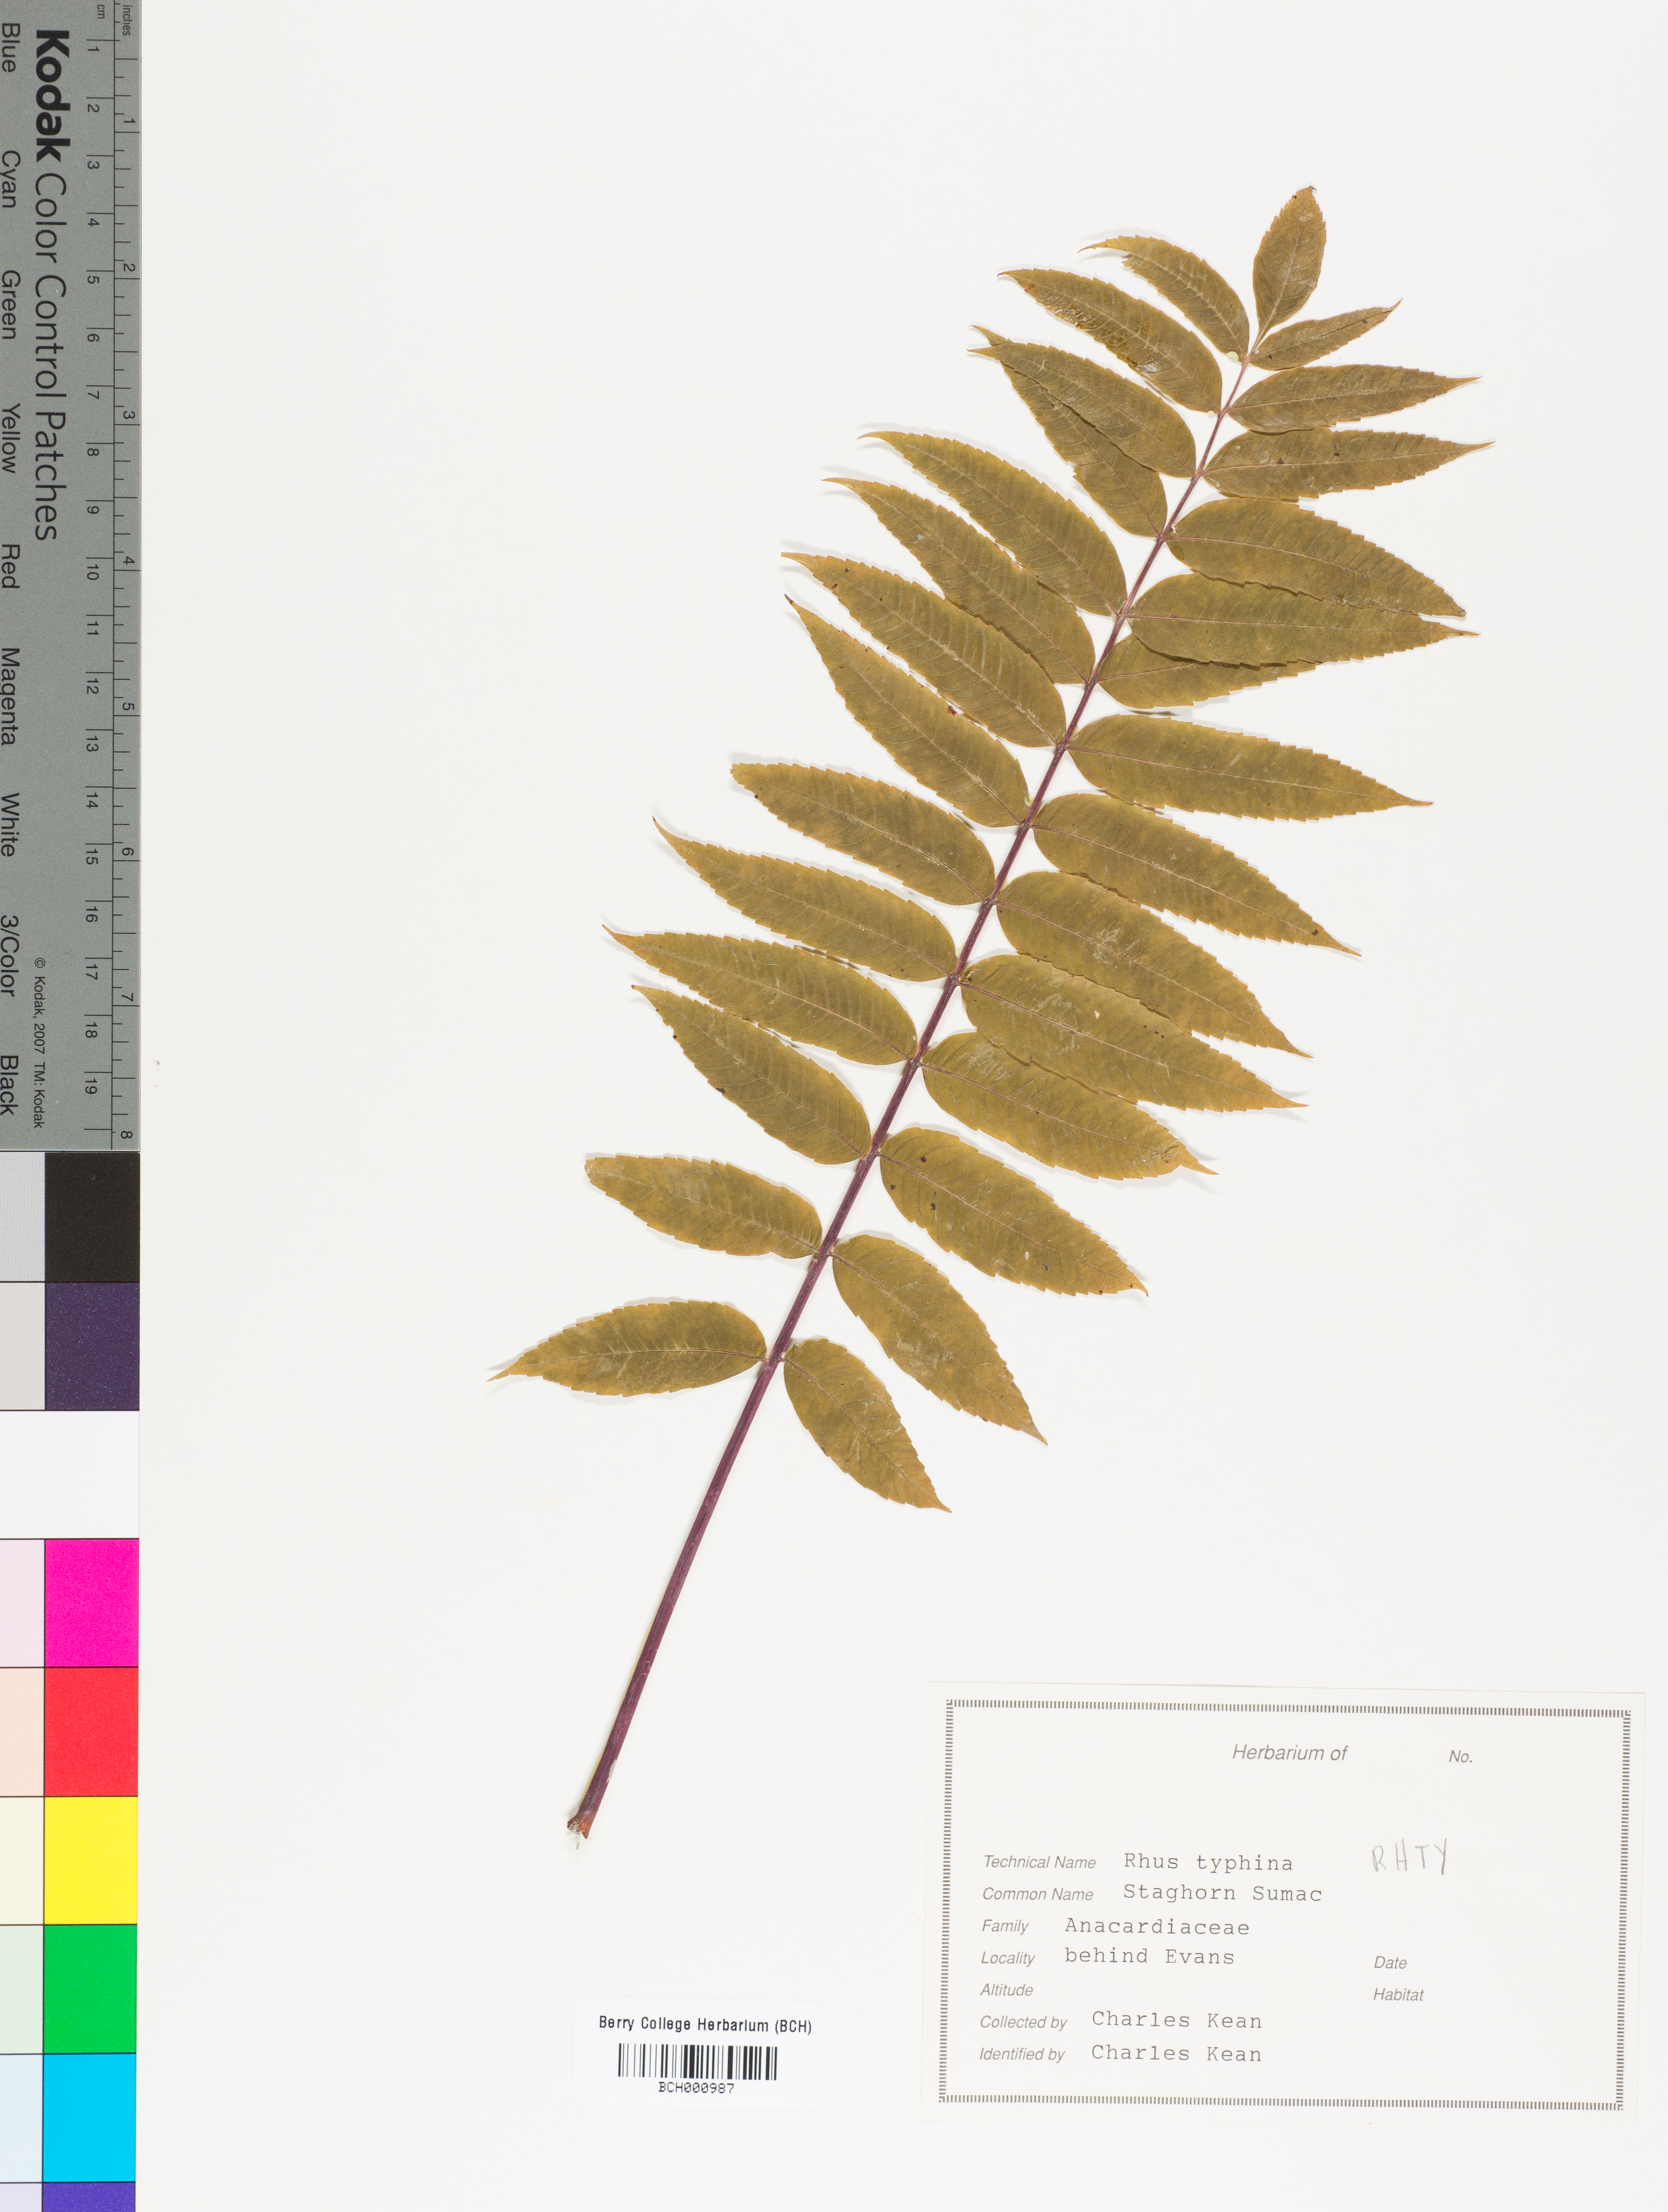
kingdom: Plantae
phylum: Tracheophyta
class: Magnoliopsida
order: Sapindales
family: Anacardiaceae
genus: Rhus
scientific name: Rhus typhina
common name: Staghorn sumac
